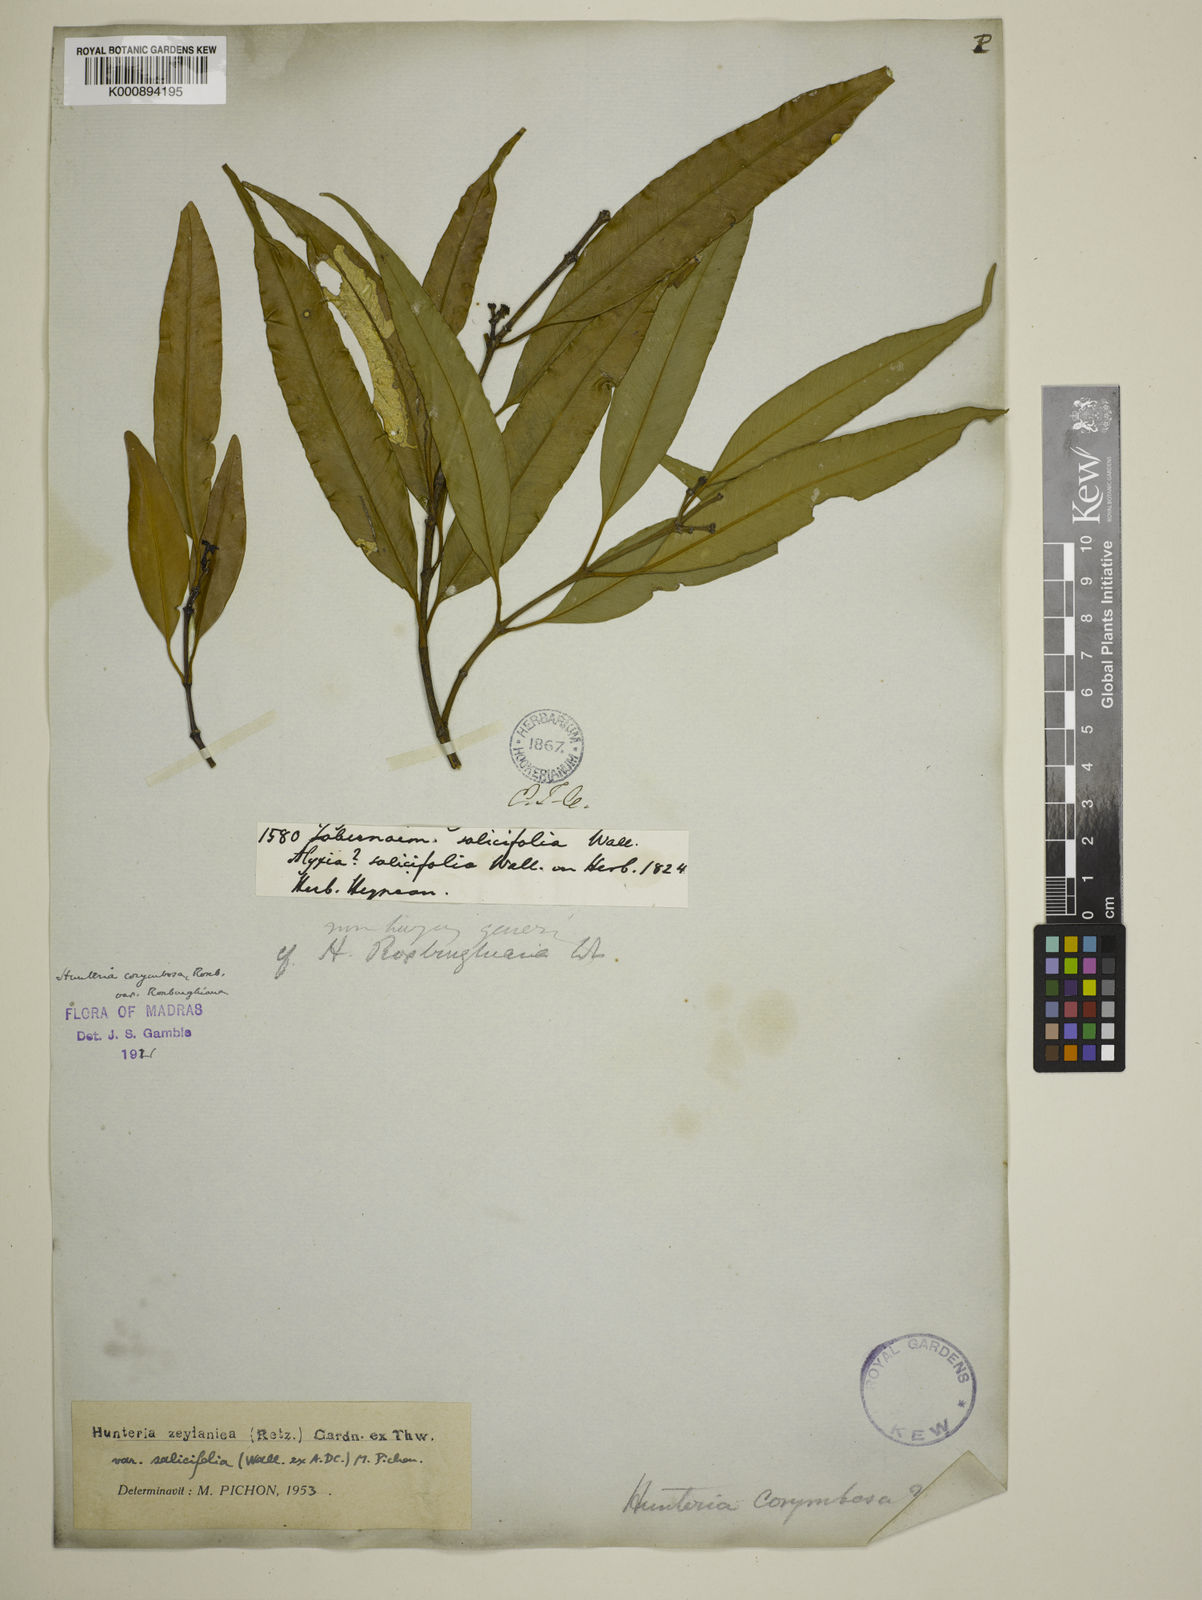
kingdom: Plantae
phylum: Tracheophyta
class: Magnoliopsida
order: Gentianales
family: Apocynaceae
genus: Hunteria
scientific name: Hunteria zeylanica
